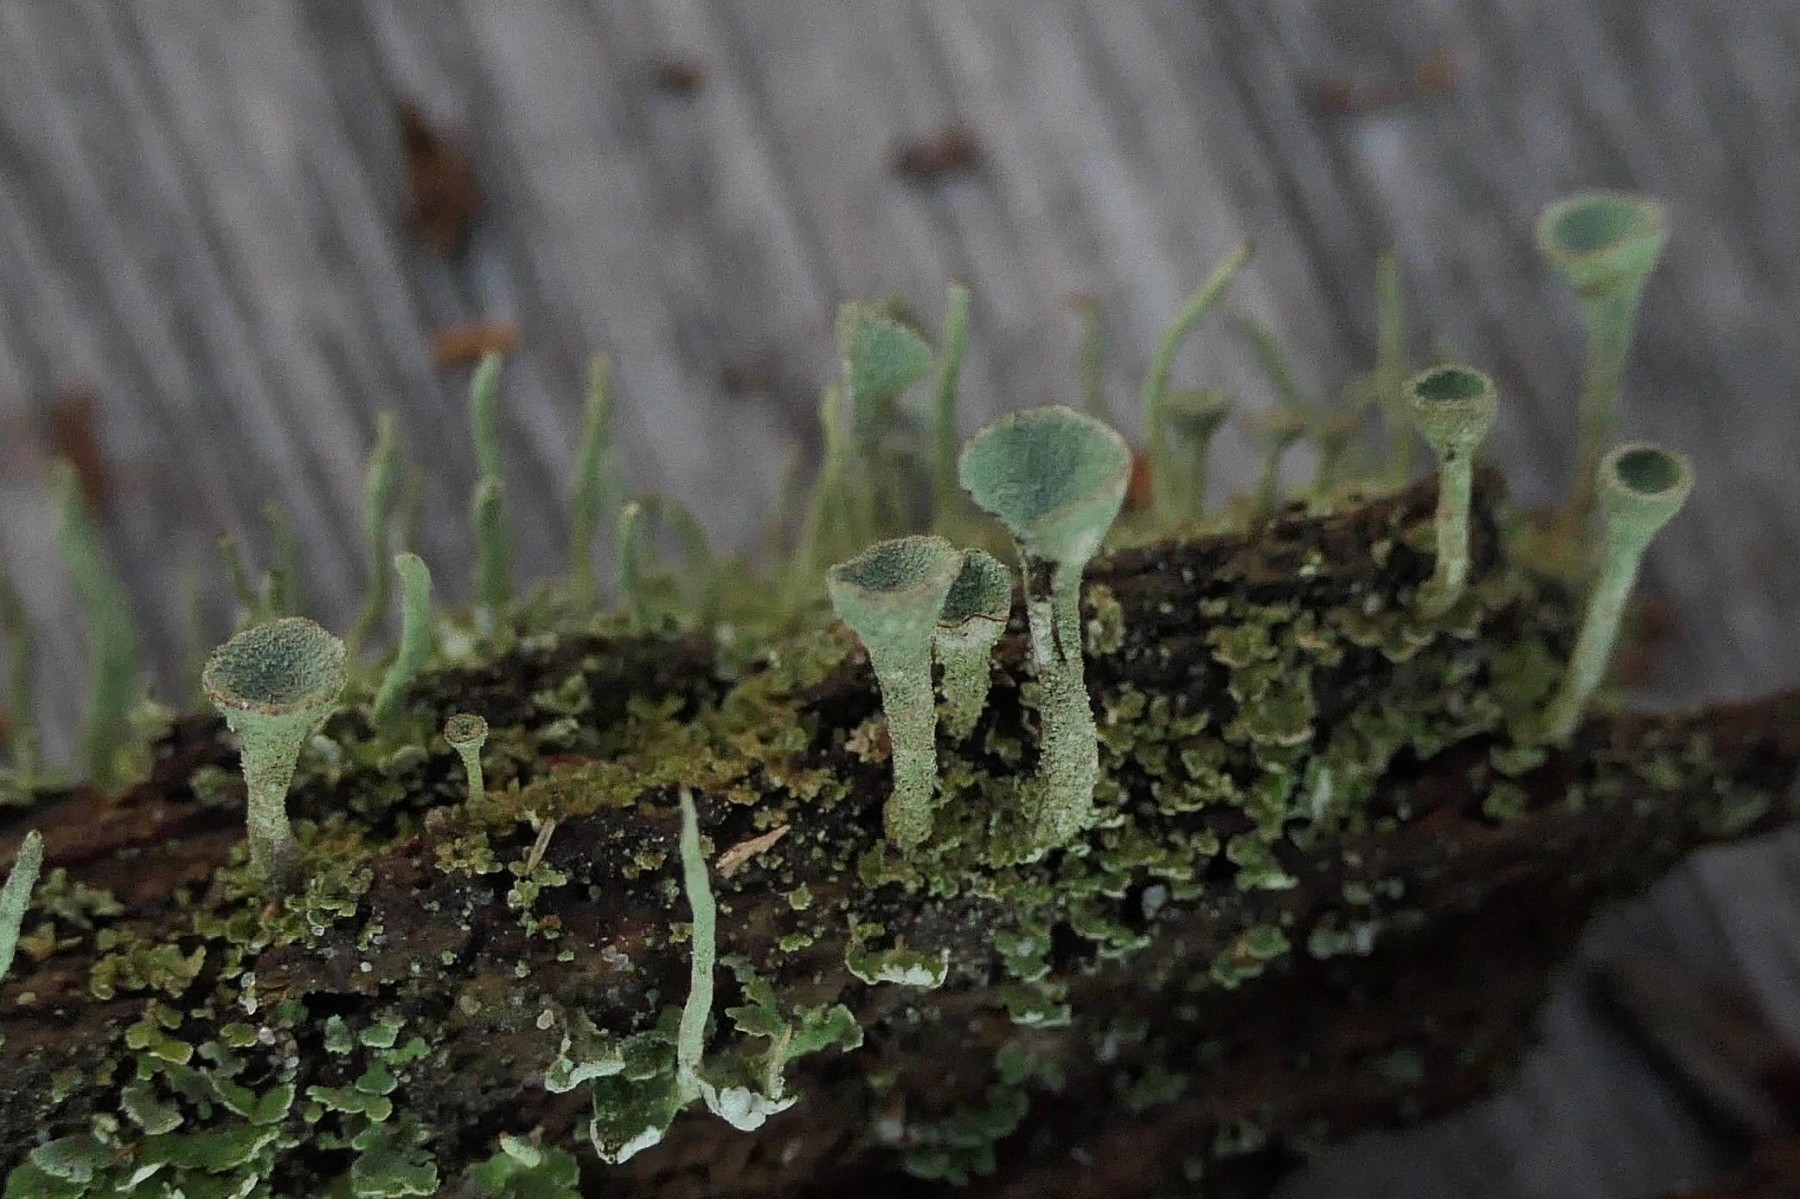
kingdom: Fungi
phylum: Ascomycota
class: Lecanoromycetes
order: Lecanorales
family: Cladoniaceae
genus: Cladonia
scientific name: Cladonia fimbriata
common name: bleggrøn bægerlav
